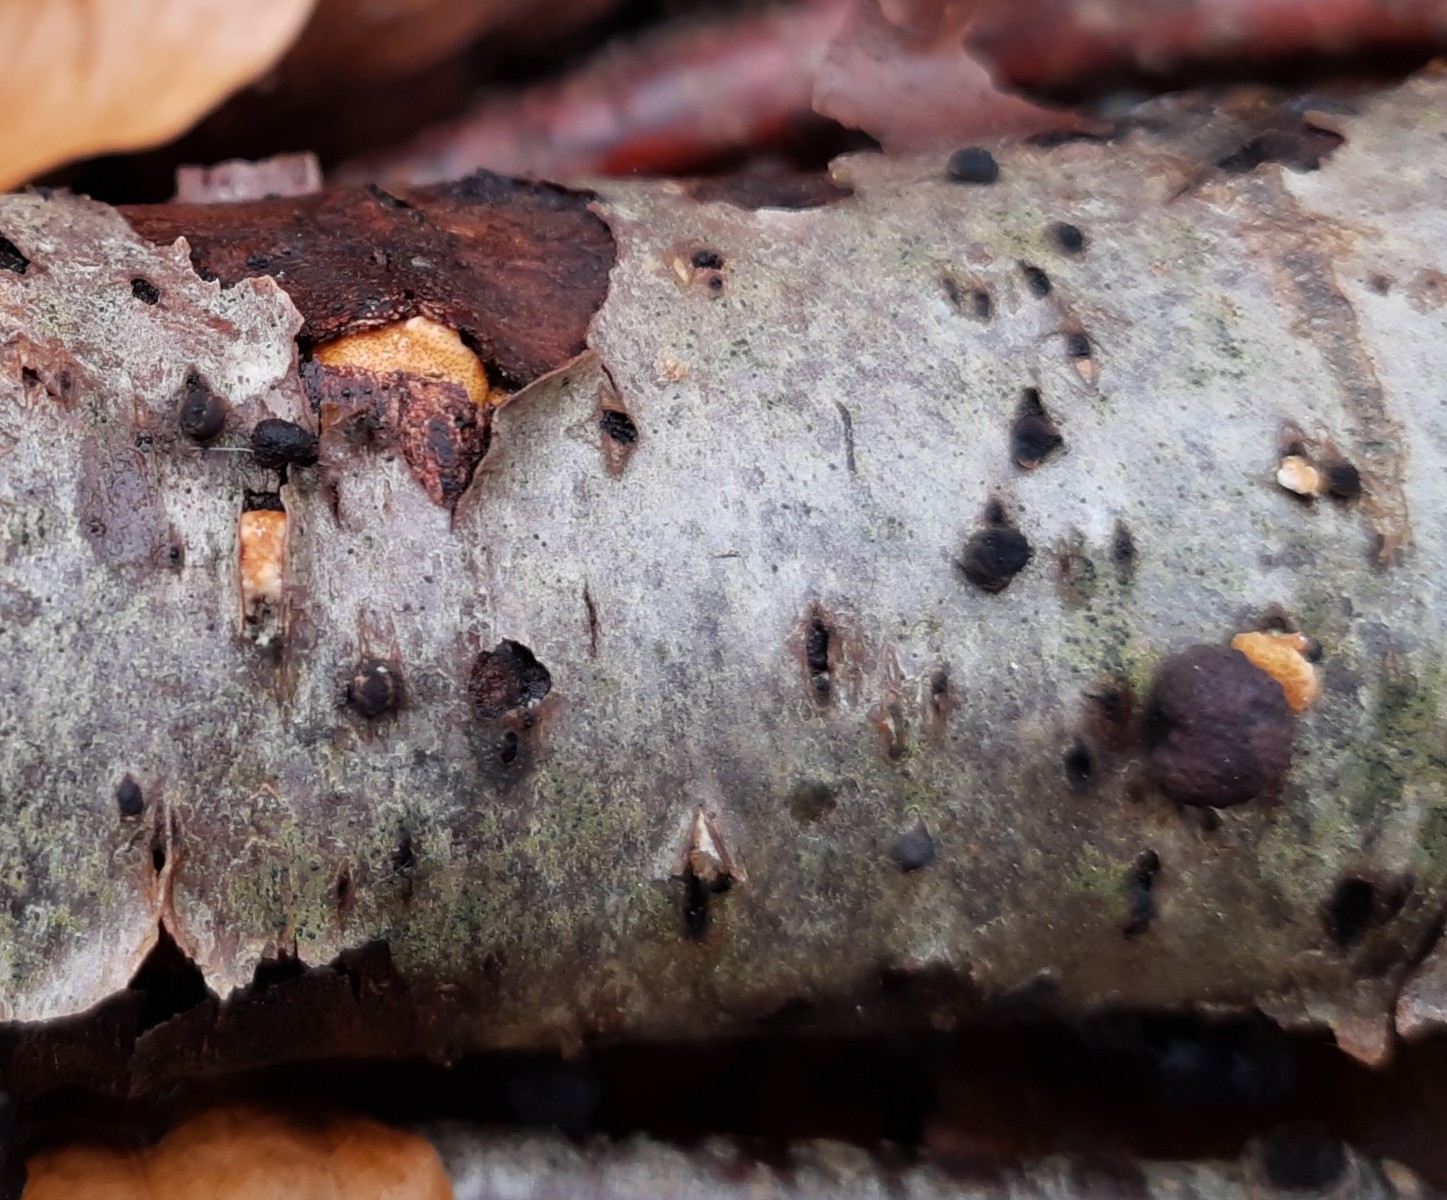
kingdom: Fungi
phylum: Ascomycota
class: Sordariomycetes
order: Hypocreales
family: Hypocreaceae
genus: Trichoderma
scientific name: Trichoderma europaeum
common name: rosabrun kødkerne
